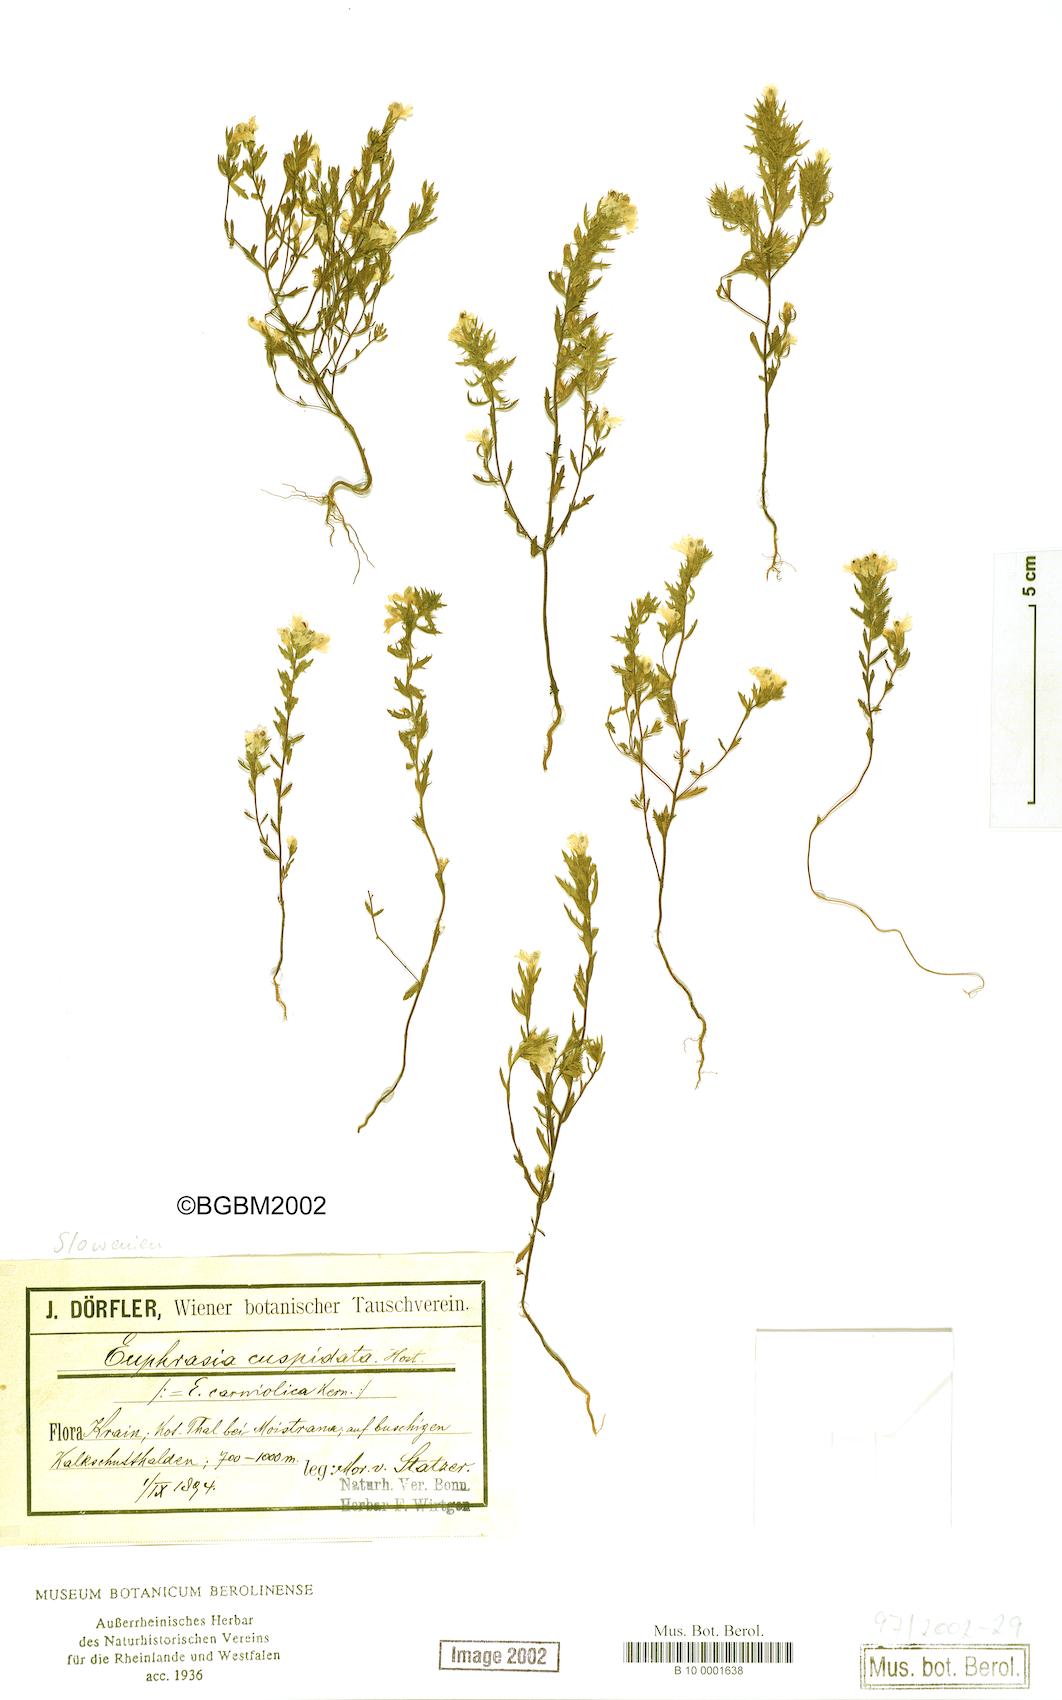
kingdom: Plantae
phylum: Tracheophyta
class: Magnoliopsida
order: Lamiales
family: Orobanchaceae
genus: Euphrasia
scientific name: Euphrasia cuspidata
